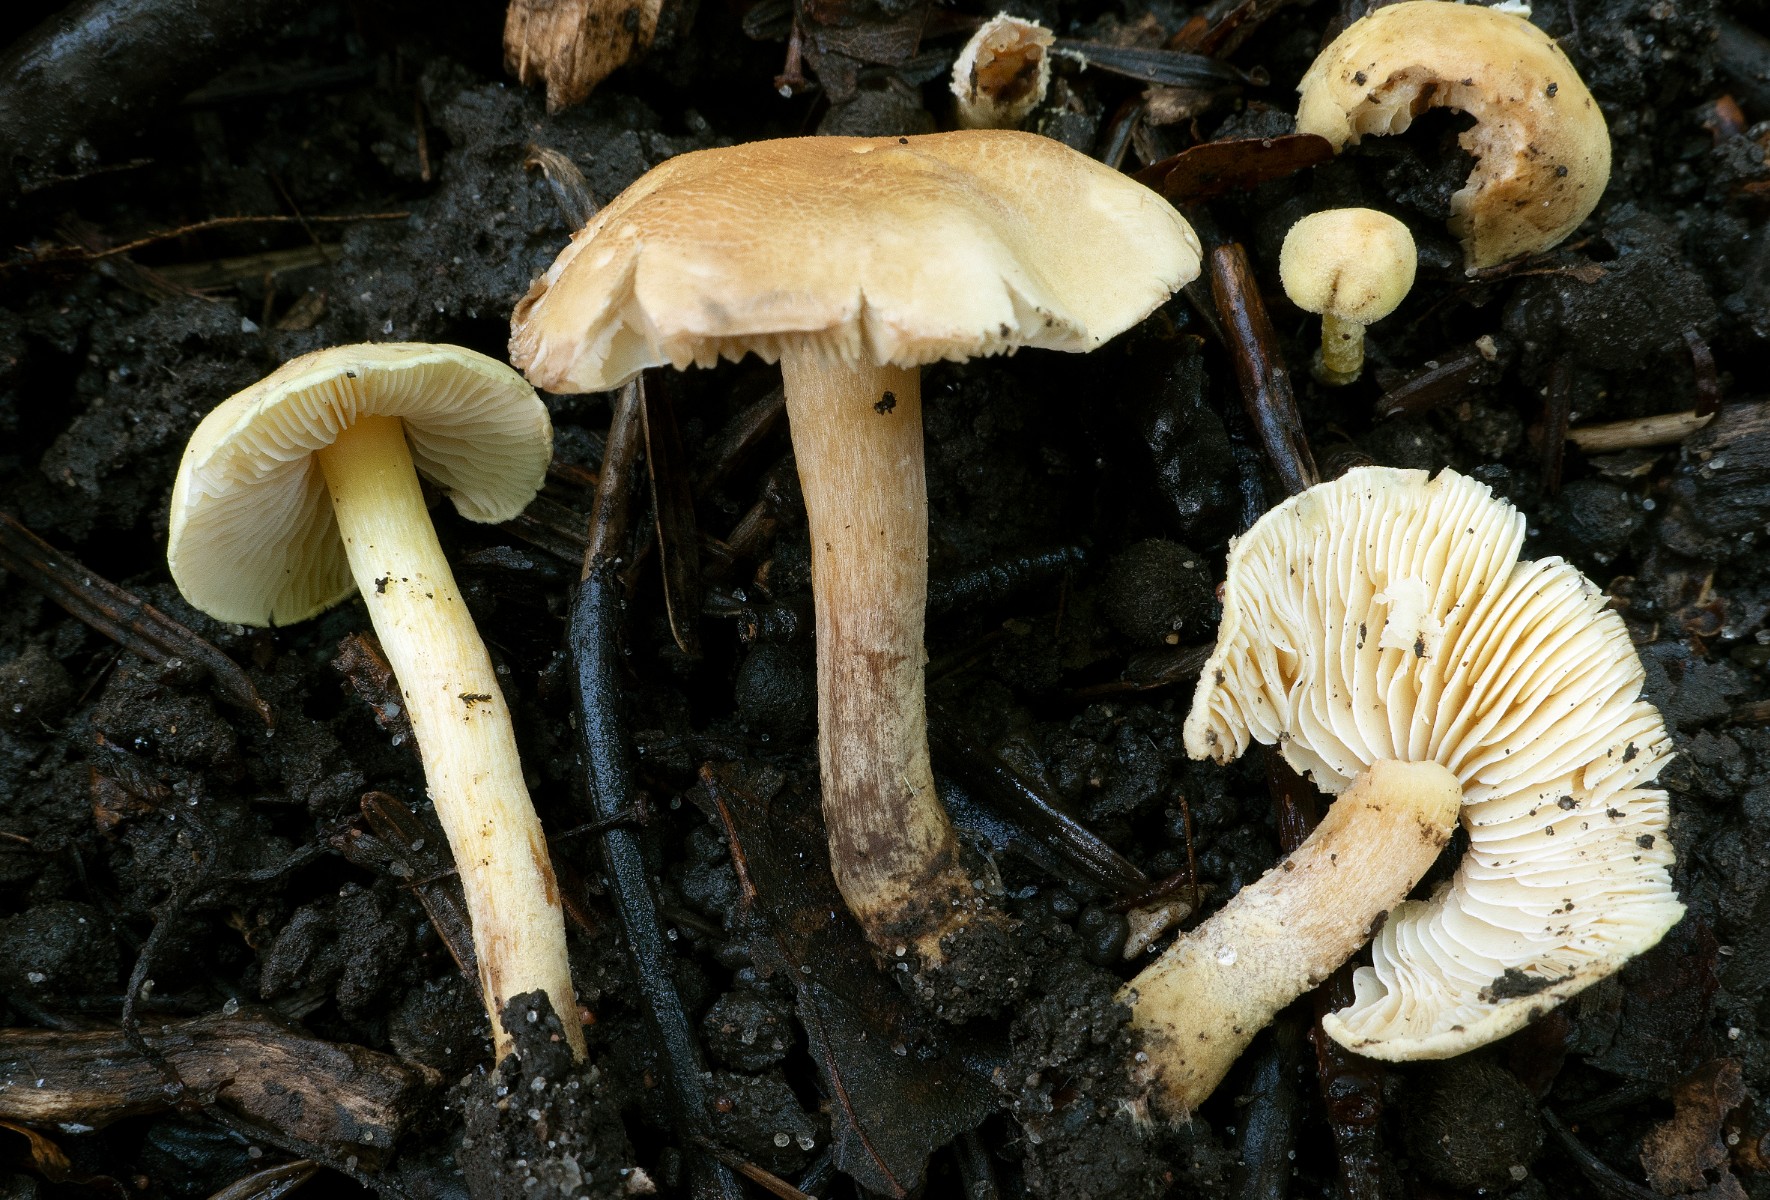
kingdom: Fungi
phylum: Basidiomycota
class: Agaricomycetes
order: Agaricales
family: Agaricaceae
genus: Cystolepiota
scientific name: Cystolepiota icterina
